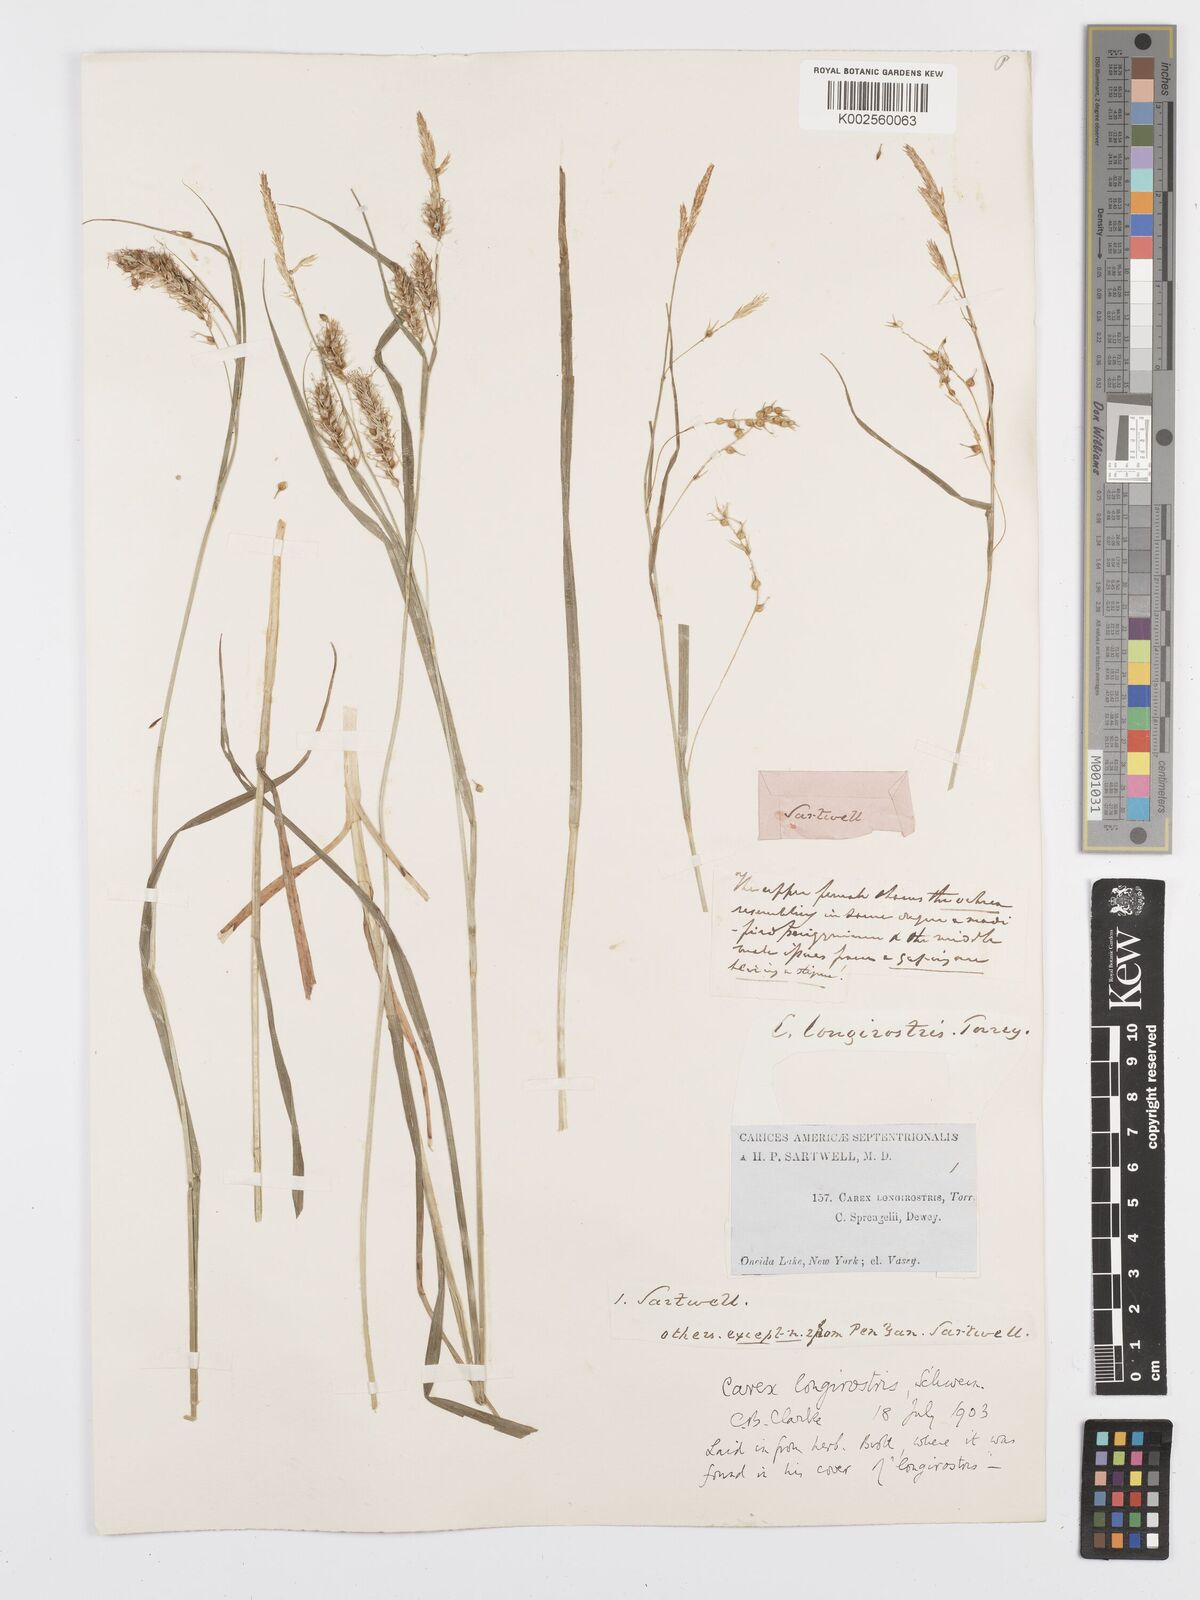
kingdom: Plantae
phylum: Tracheophyta
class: Liliopsida
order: Poales
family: Cyperaceae
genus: Carex
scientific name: Carex sprengelii
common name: Long-beaked sedge
